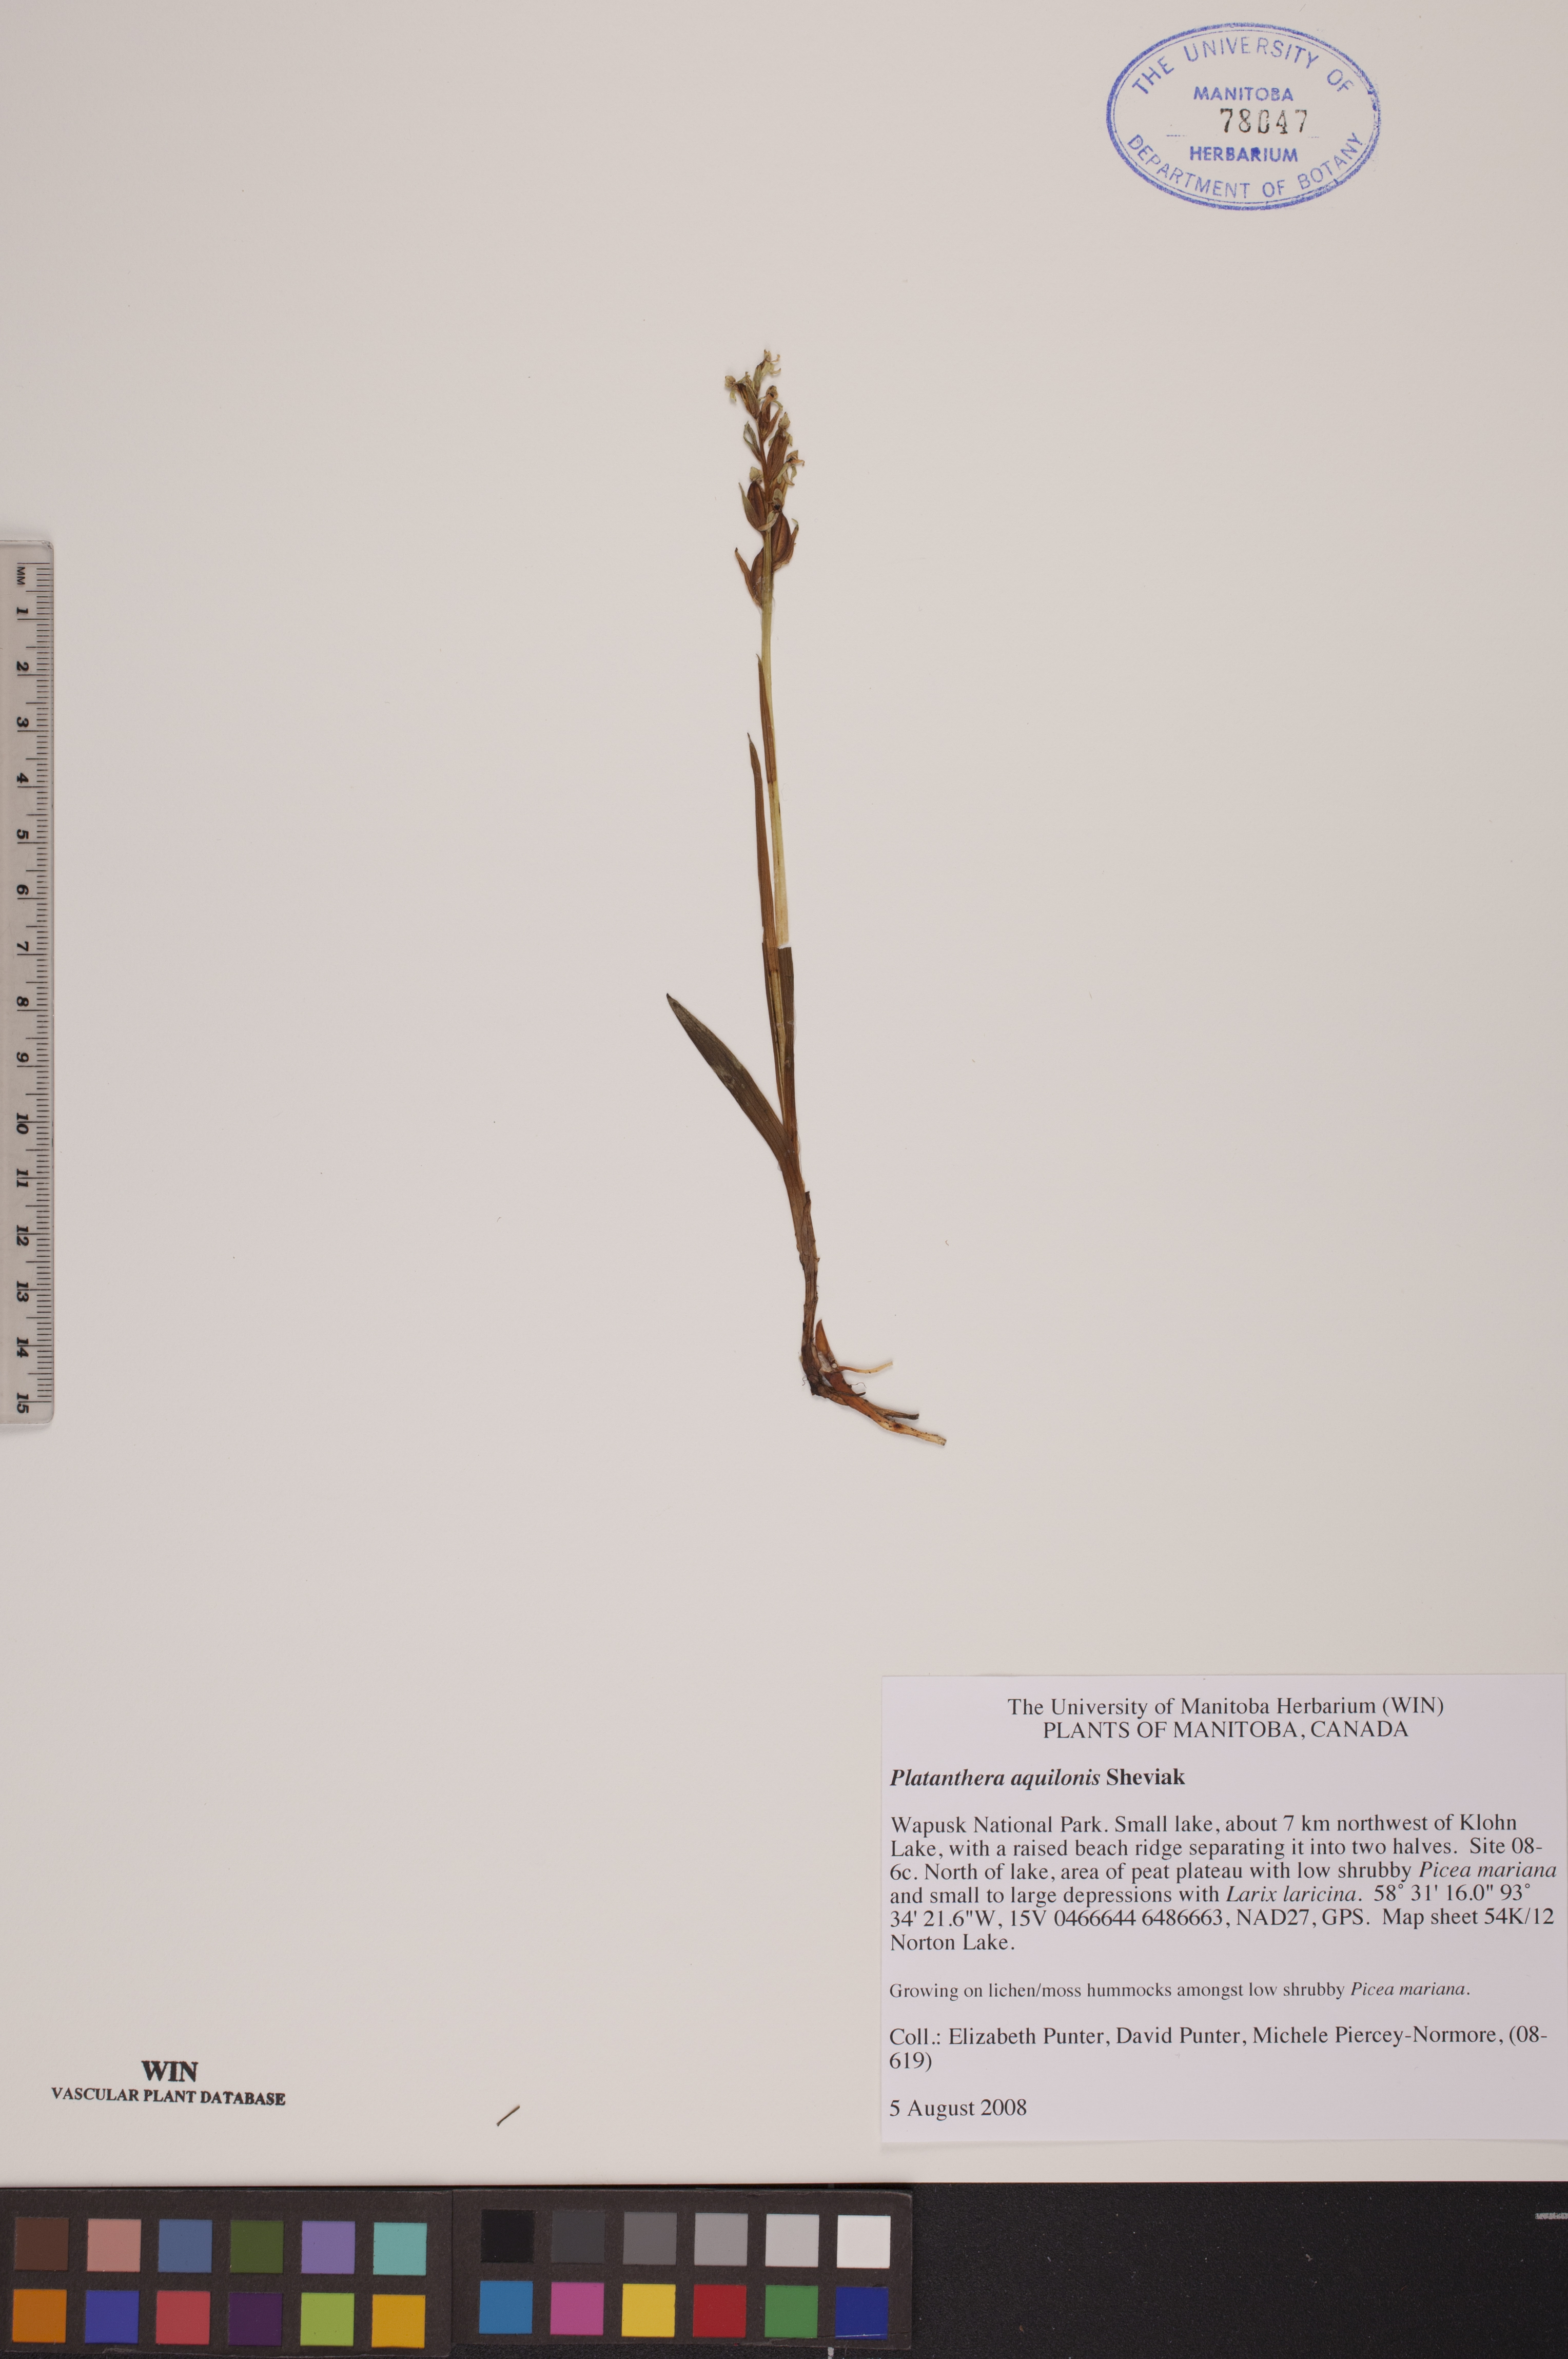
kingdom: Plantae
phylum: Tracheophyta
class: Liliopsida
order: Asparagales
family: Orchidaceae
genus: Platanthera
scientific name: Platanthera aquilonis
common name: Northern green orchid
